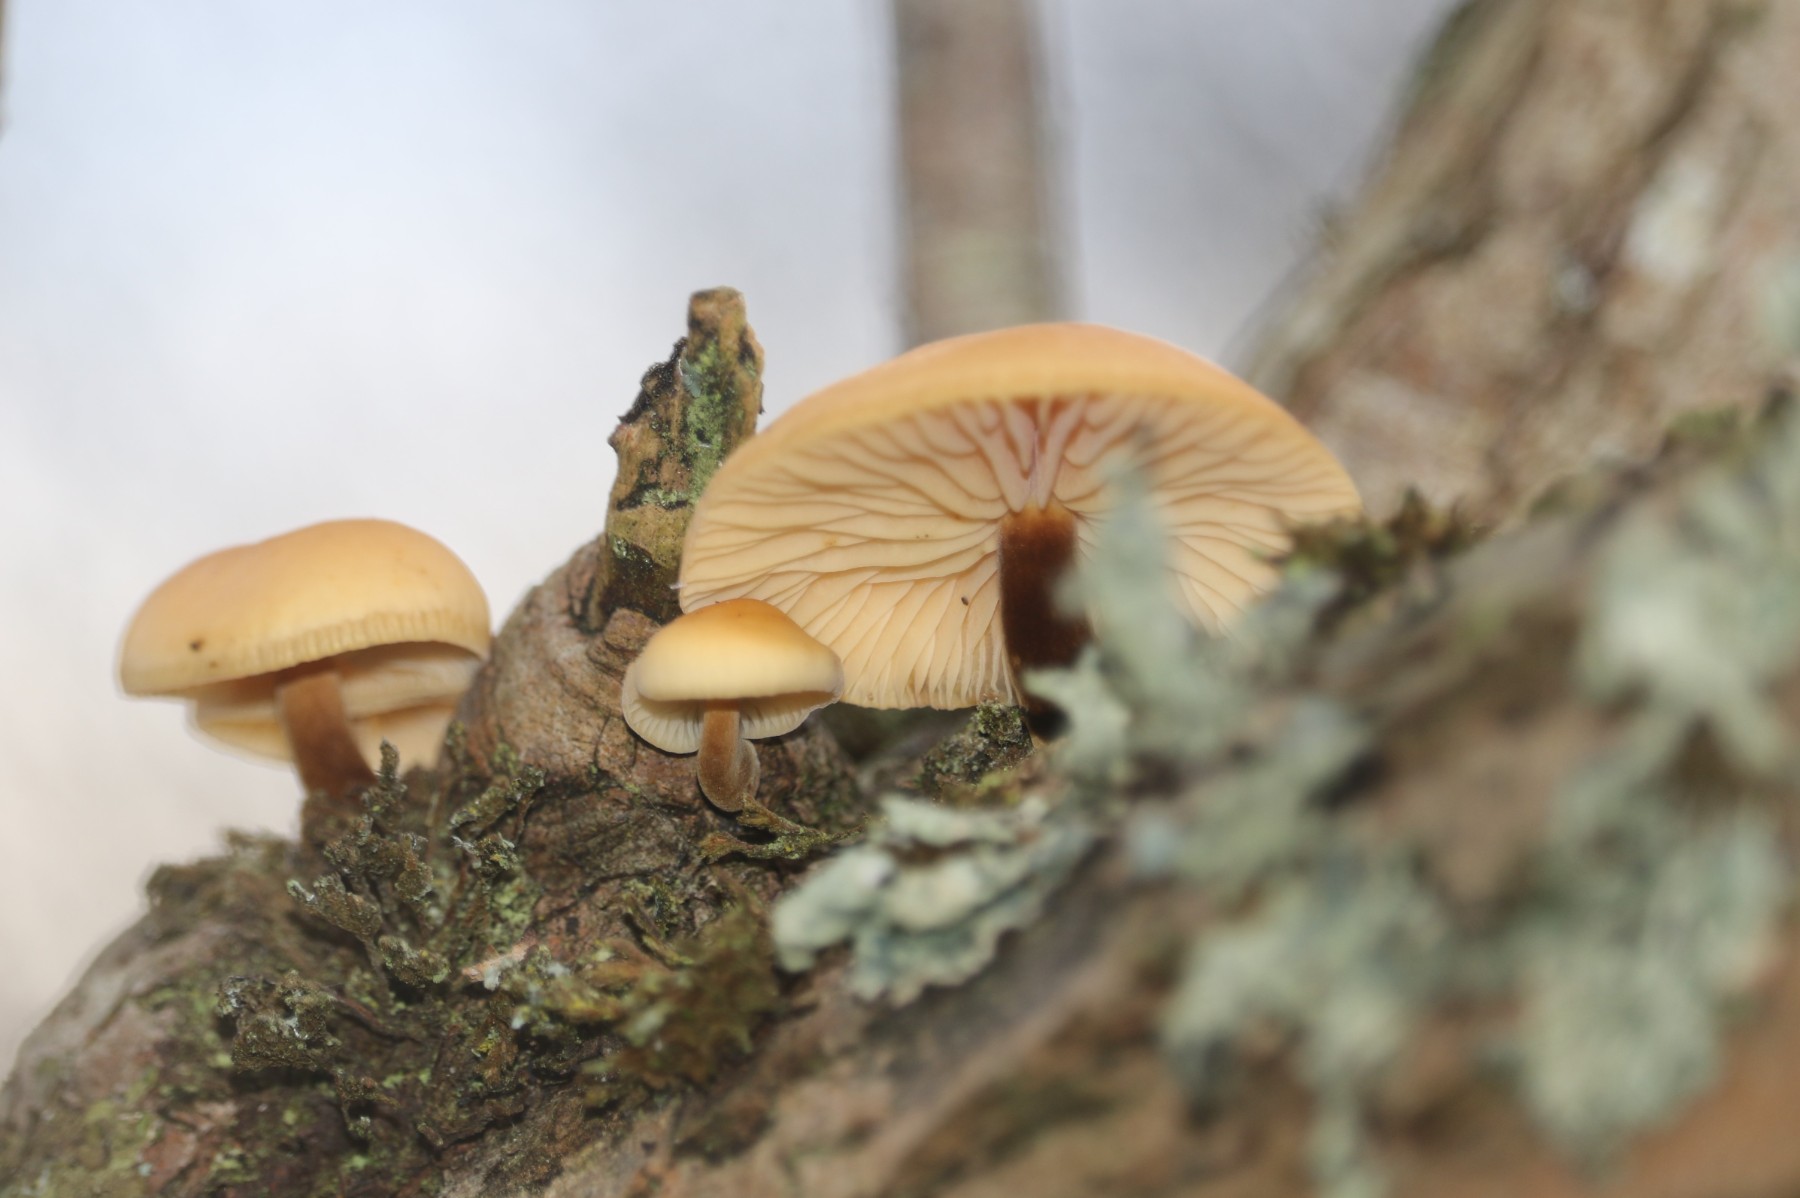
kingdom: Fungi
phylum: Basidiomycota
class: Agaricomycetes
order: Agaricales
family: Physalacriaceae
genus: Flammulina
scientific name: Flammulina
